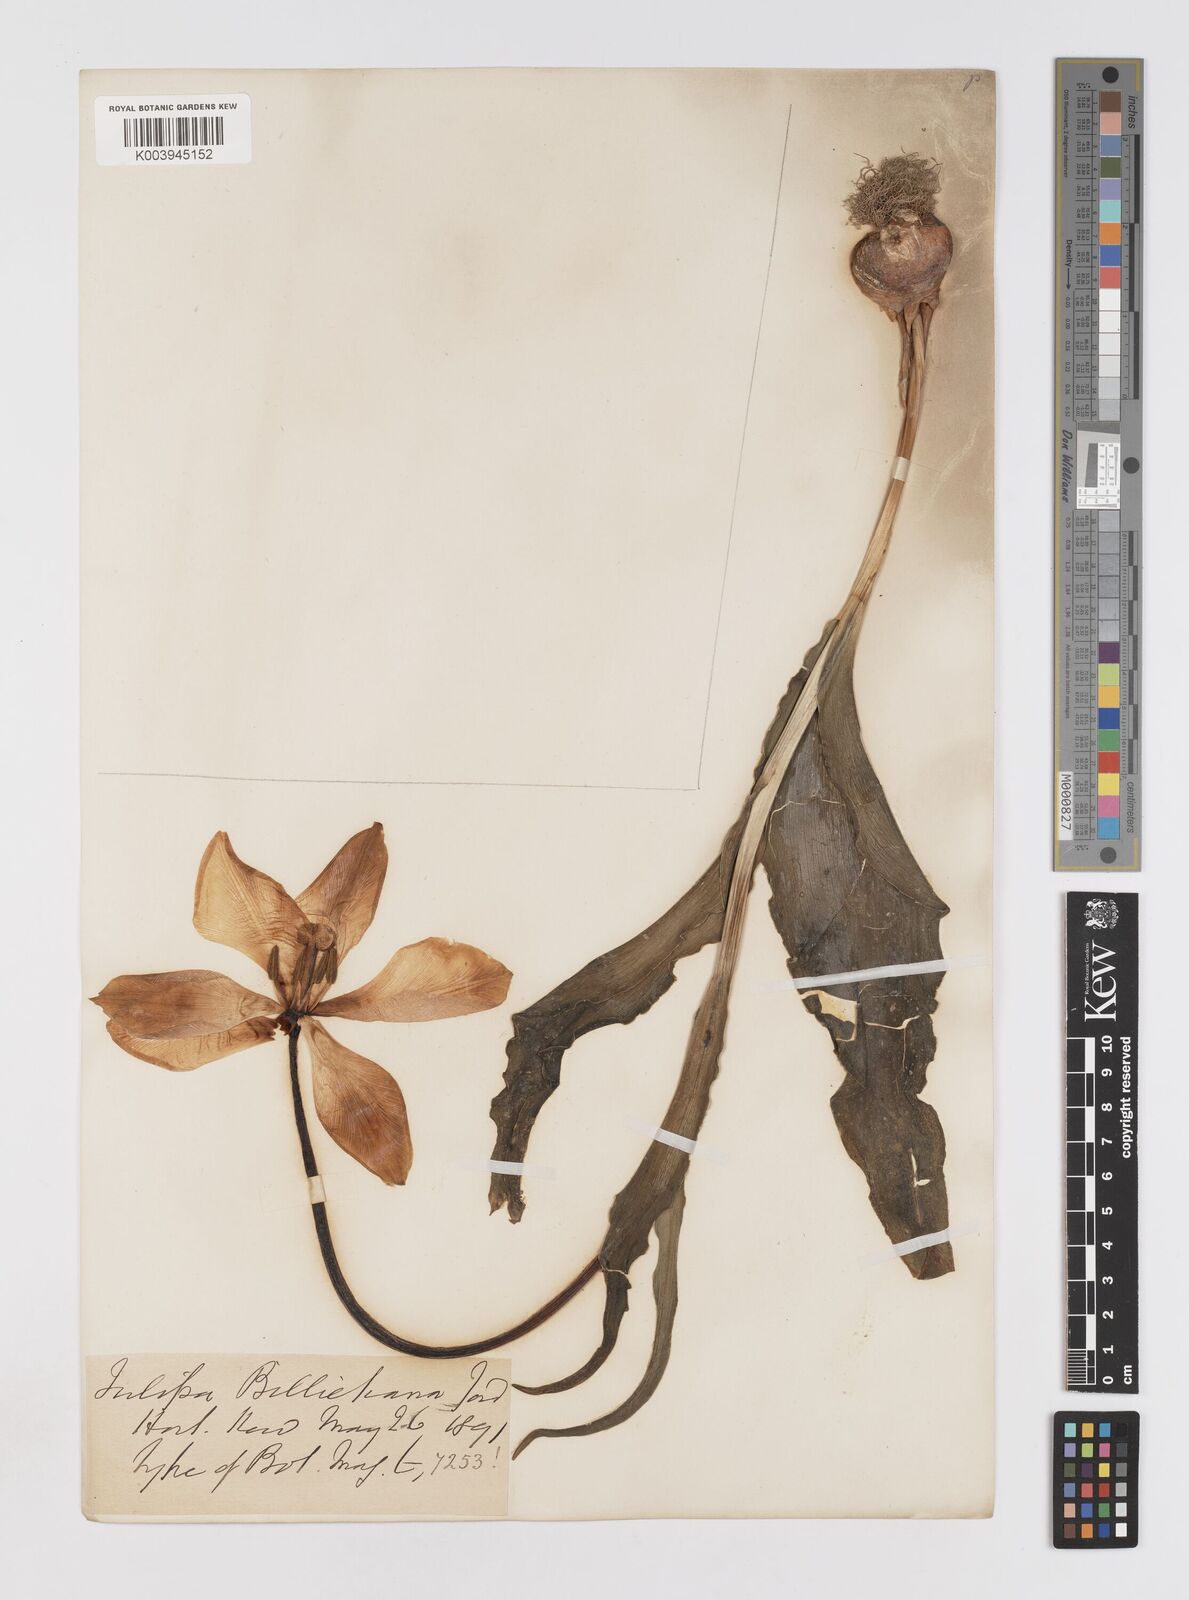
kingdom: Plantae
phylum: Tracheophyta
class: Liliopsida
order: Liliales
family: Liliaceae
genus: Tulipa
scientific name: Tulipa gesneriana
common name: Garden tulip
